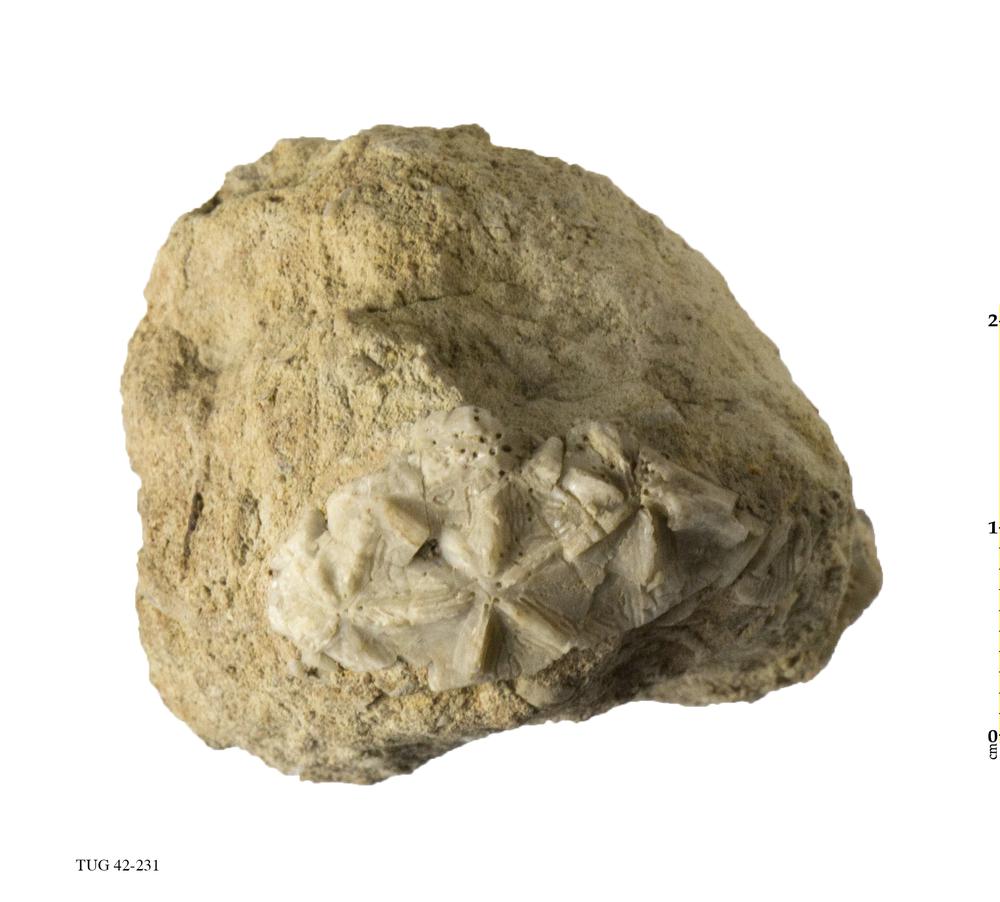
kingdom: Animalia
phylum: Echinodermata
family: Caryocystitidae
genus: Heliocrinites
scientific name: Heliocrinites
